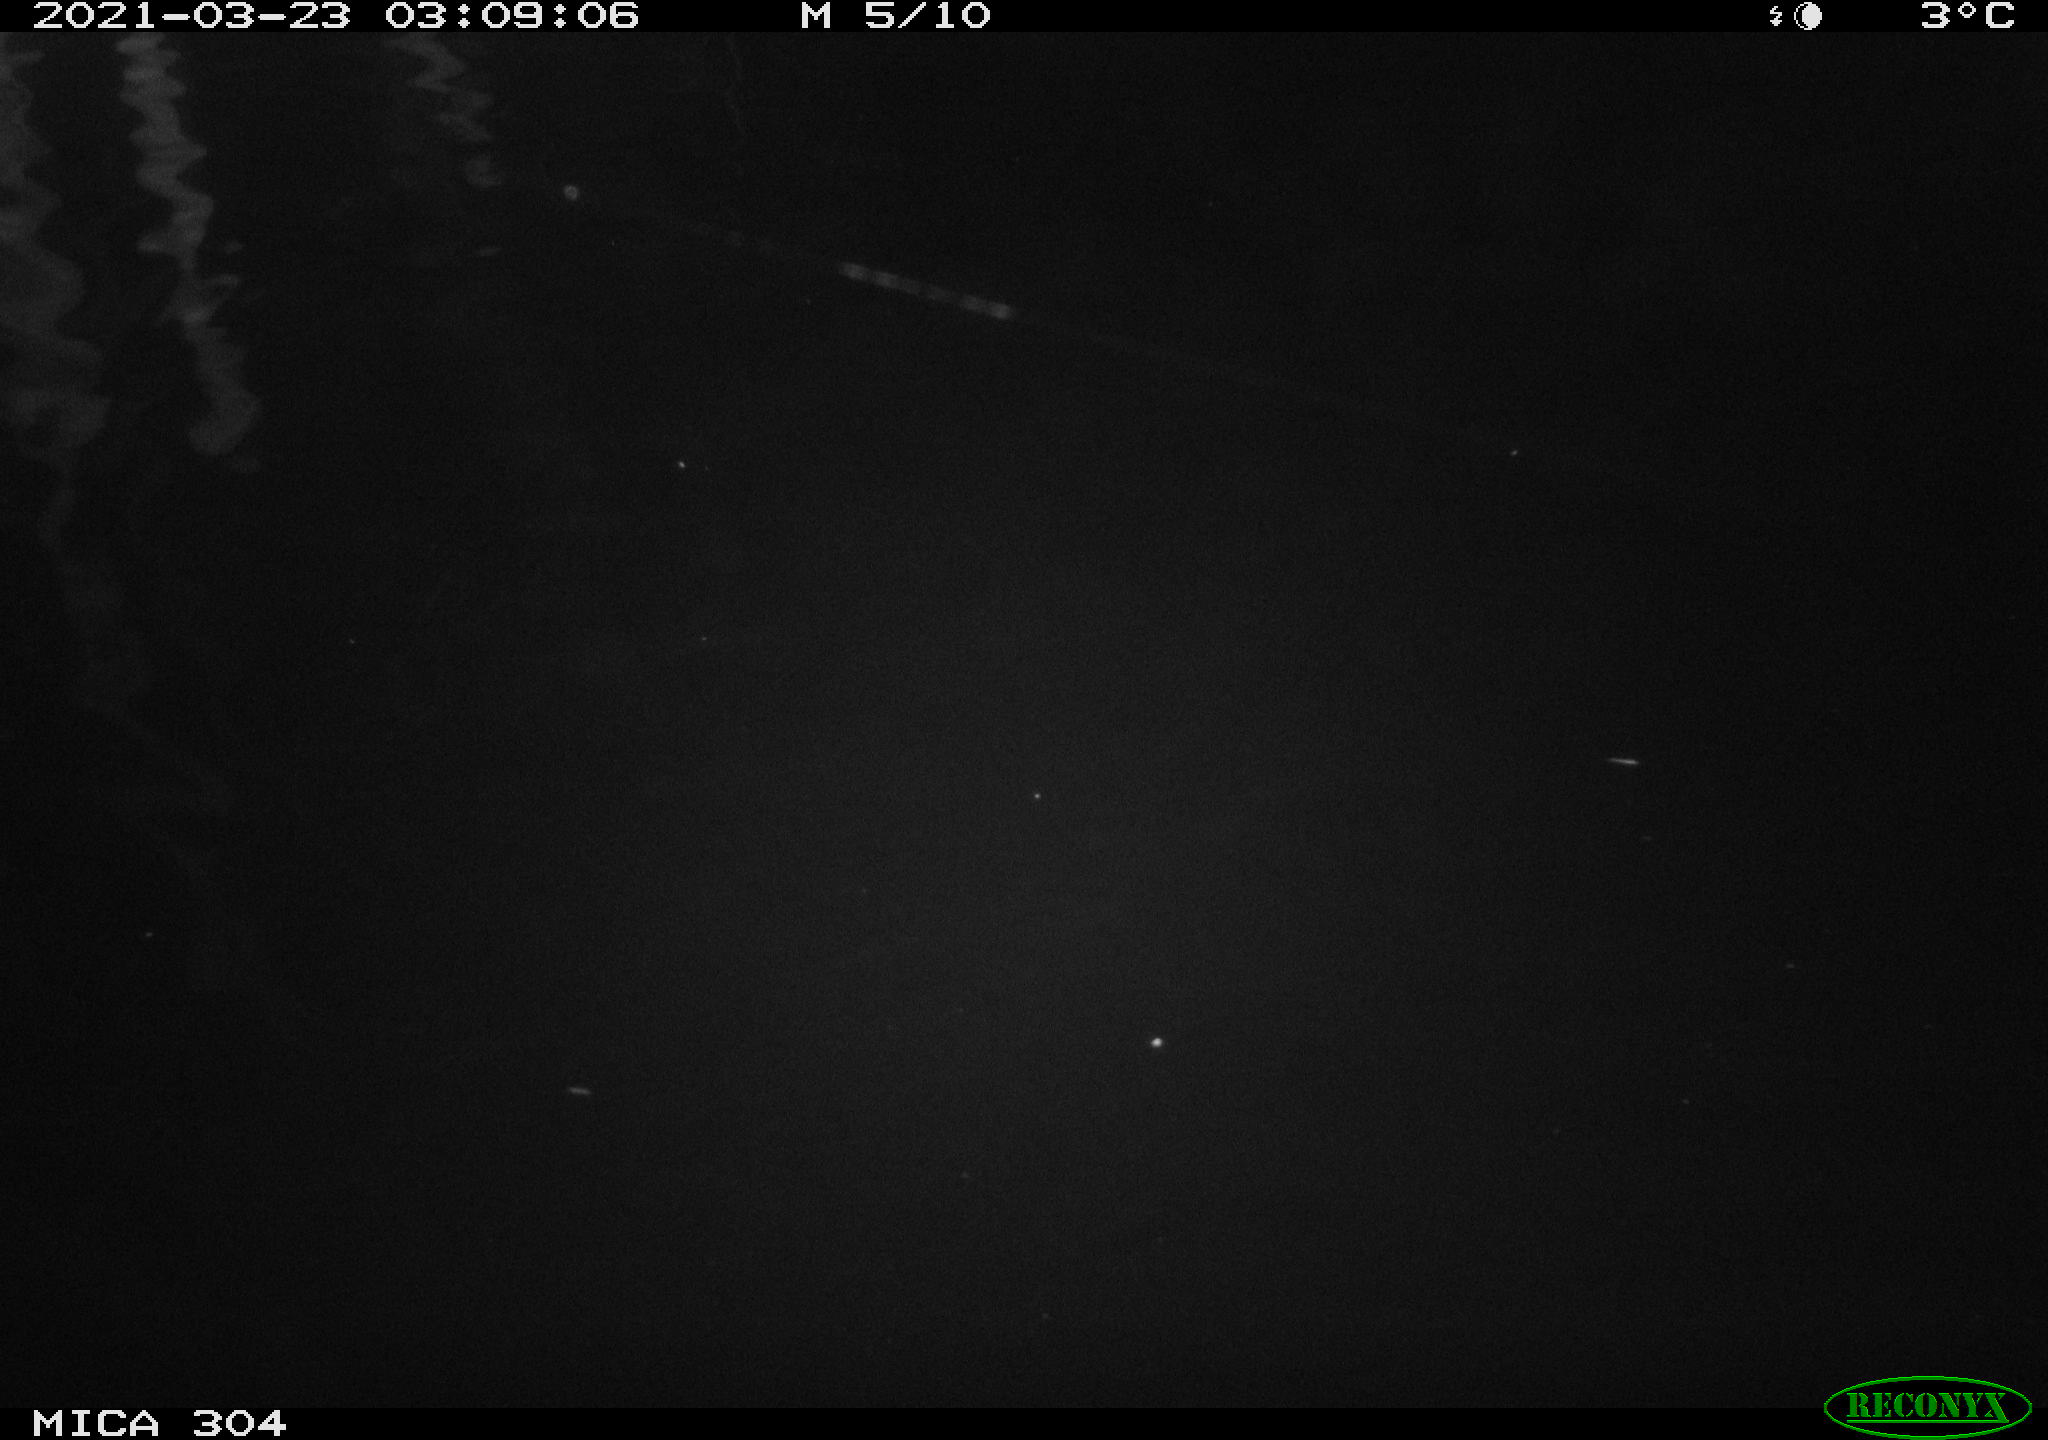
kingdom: Animalia
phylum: Chordata
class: Aves
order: Anseriformes
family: Anatidae
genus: Anas
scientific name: Anas platyrhynchos
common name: Mallard
